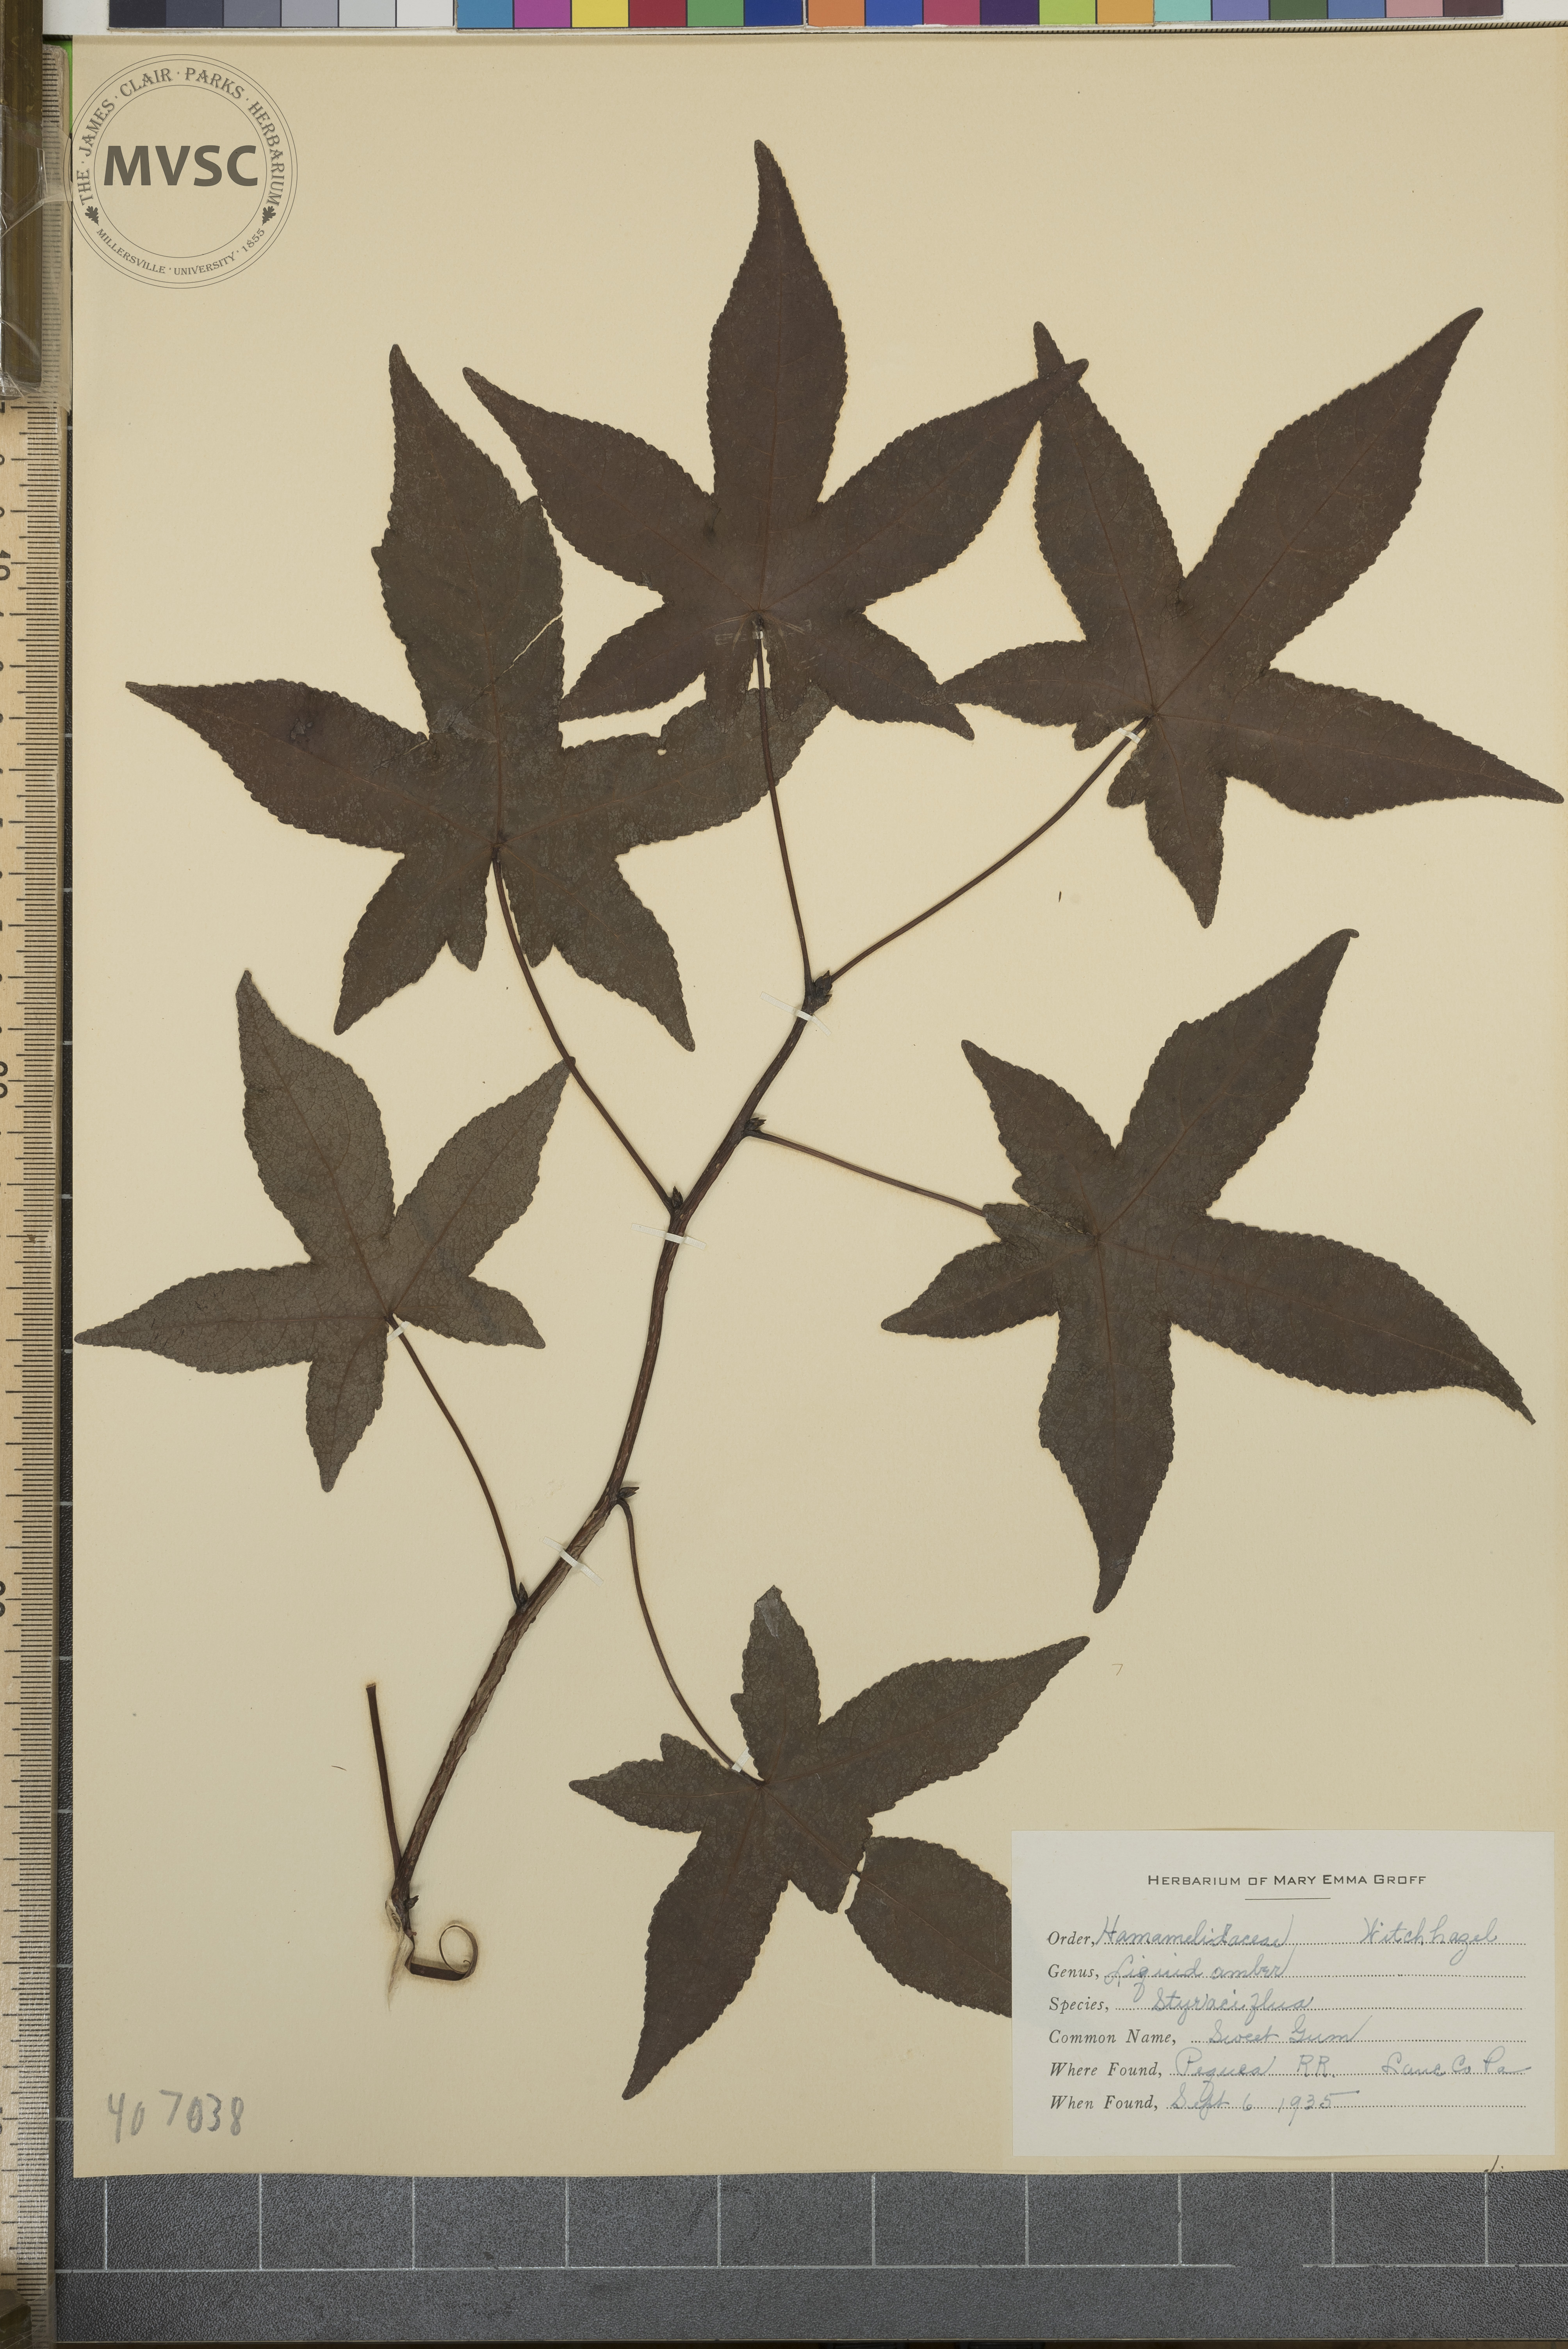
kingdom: Plantae
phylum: Tracheophyta
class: Magnoliopsida
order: Saxifragales
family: Altingiaceae
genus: Liquidambar
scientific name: Liquidambar styraciflua
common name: Sweet gum
